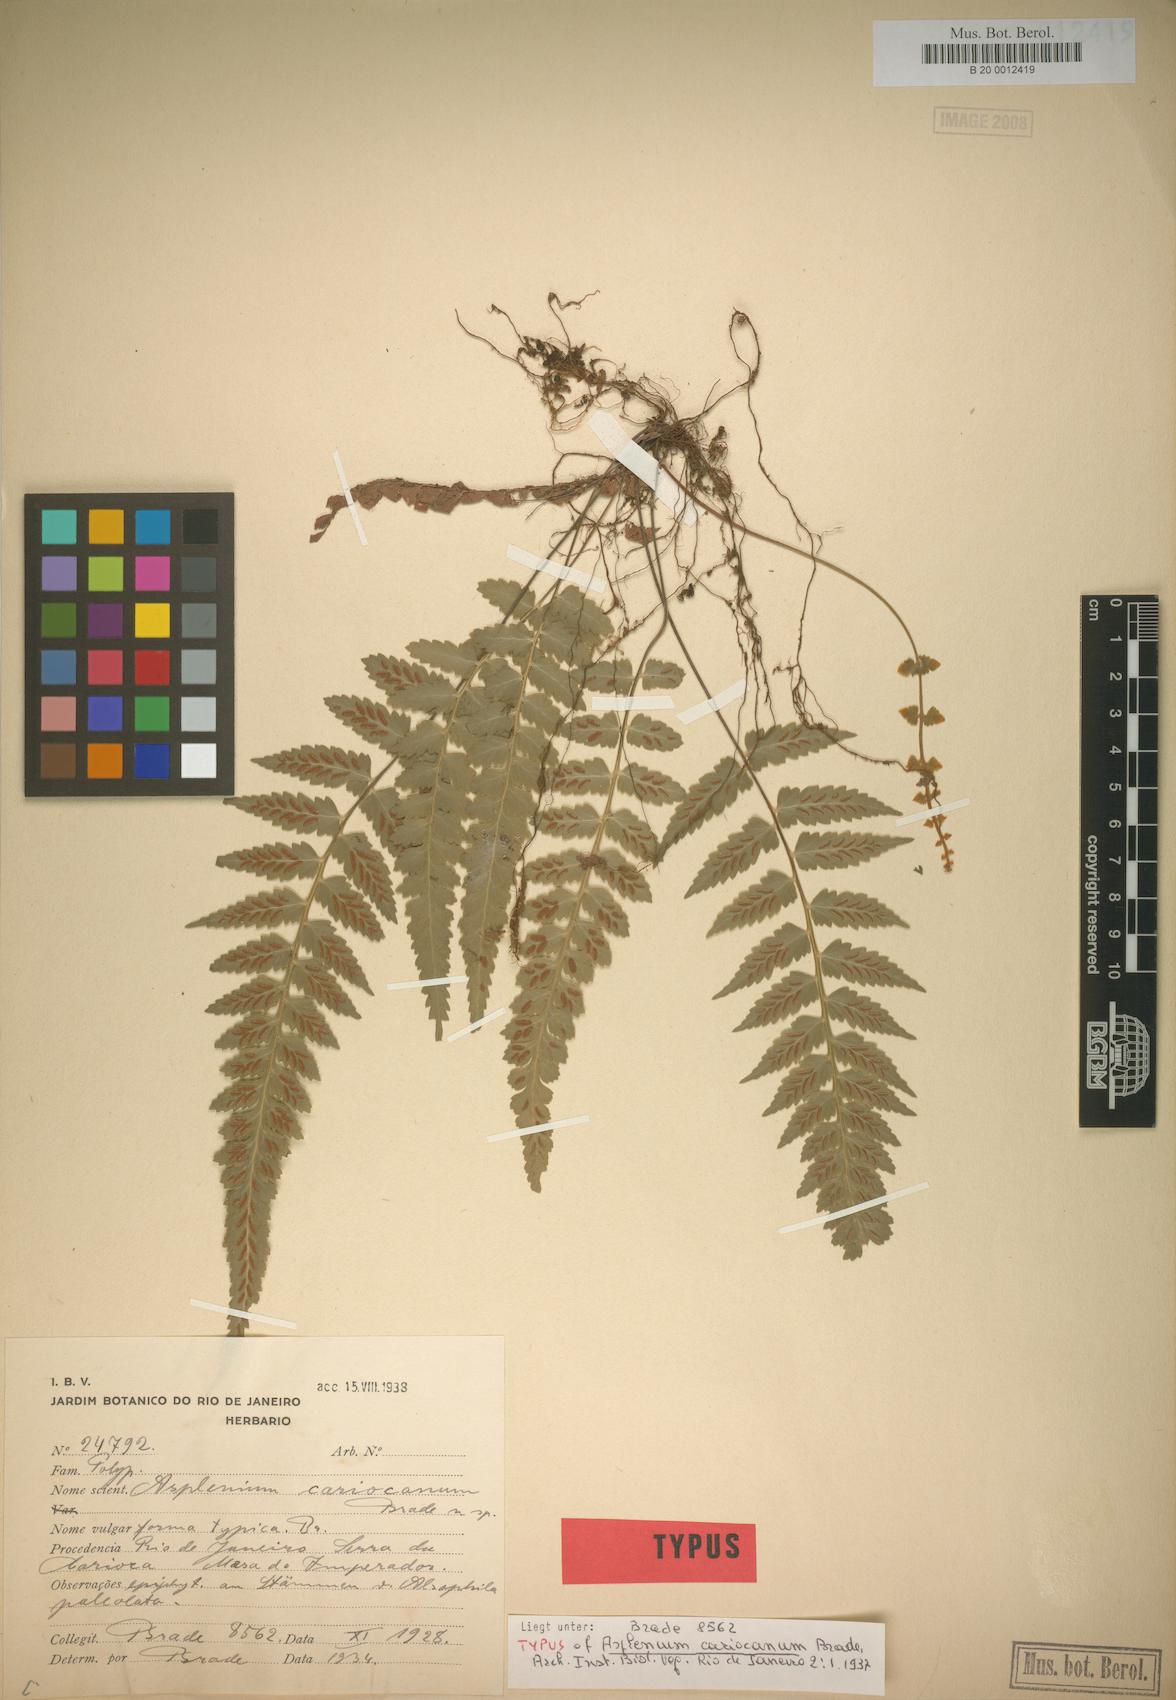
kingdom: Plantae
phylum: Tracheophyta
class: Polypodiopsida
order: Polypodiales
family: Aspleniaceae
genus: Asplenium
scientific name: Asplenium cariocanum
